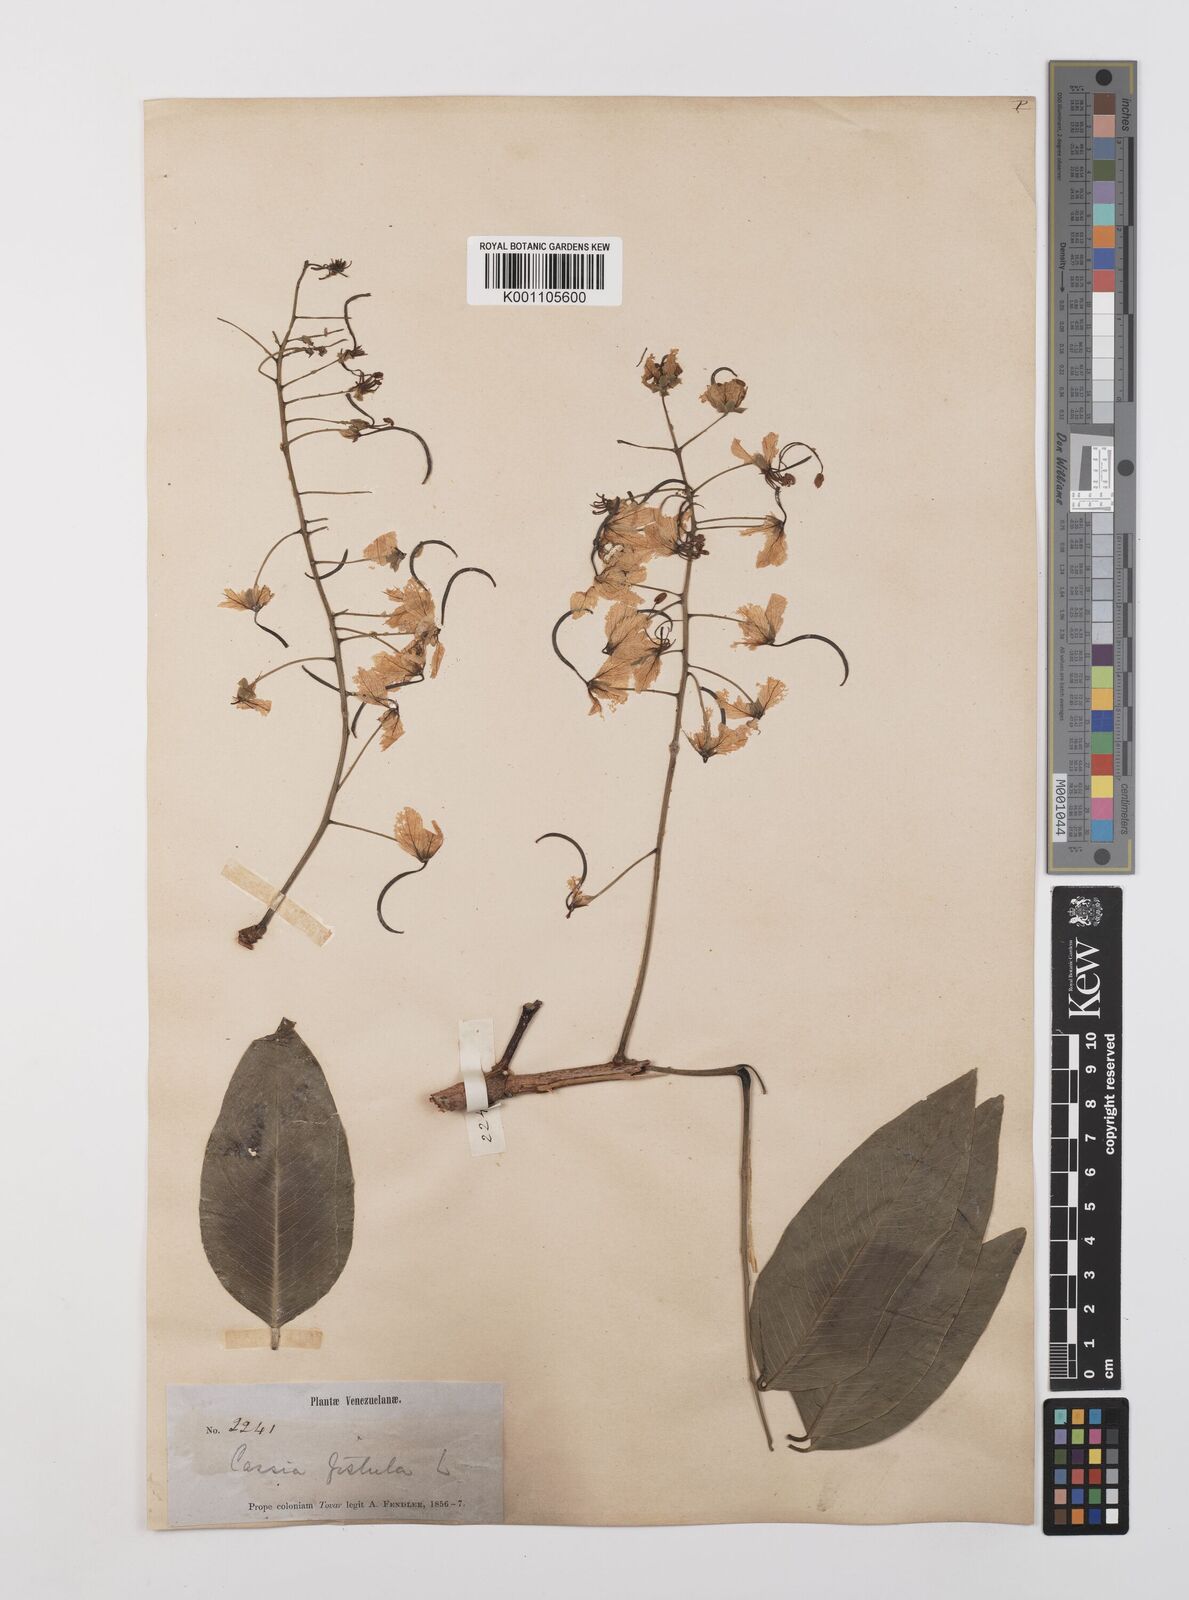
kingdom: Plantae
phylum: Tracheophyta
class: Magnoliopsida
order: Fabales
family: Fabaceae
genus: Cassia
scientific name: Cassia fistula
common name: Golden shower
